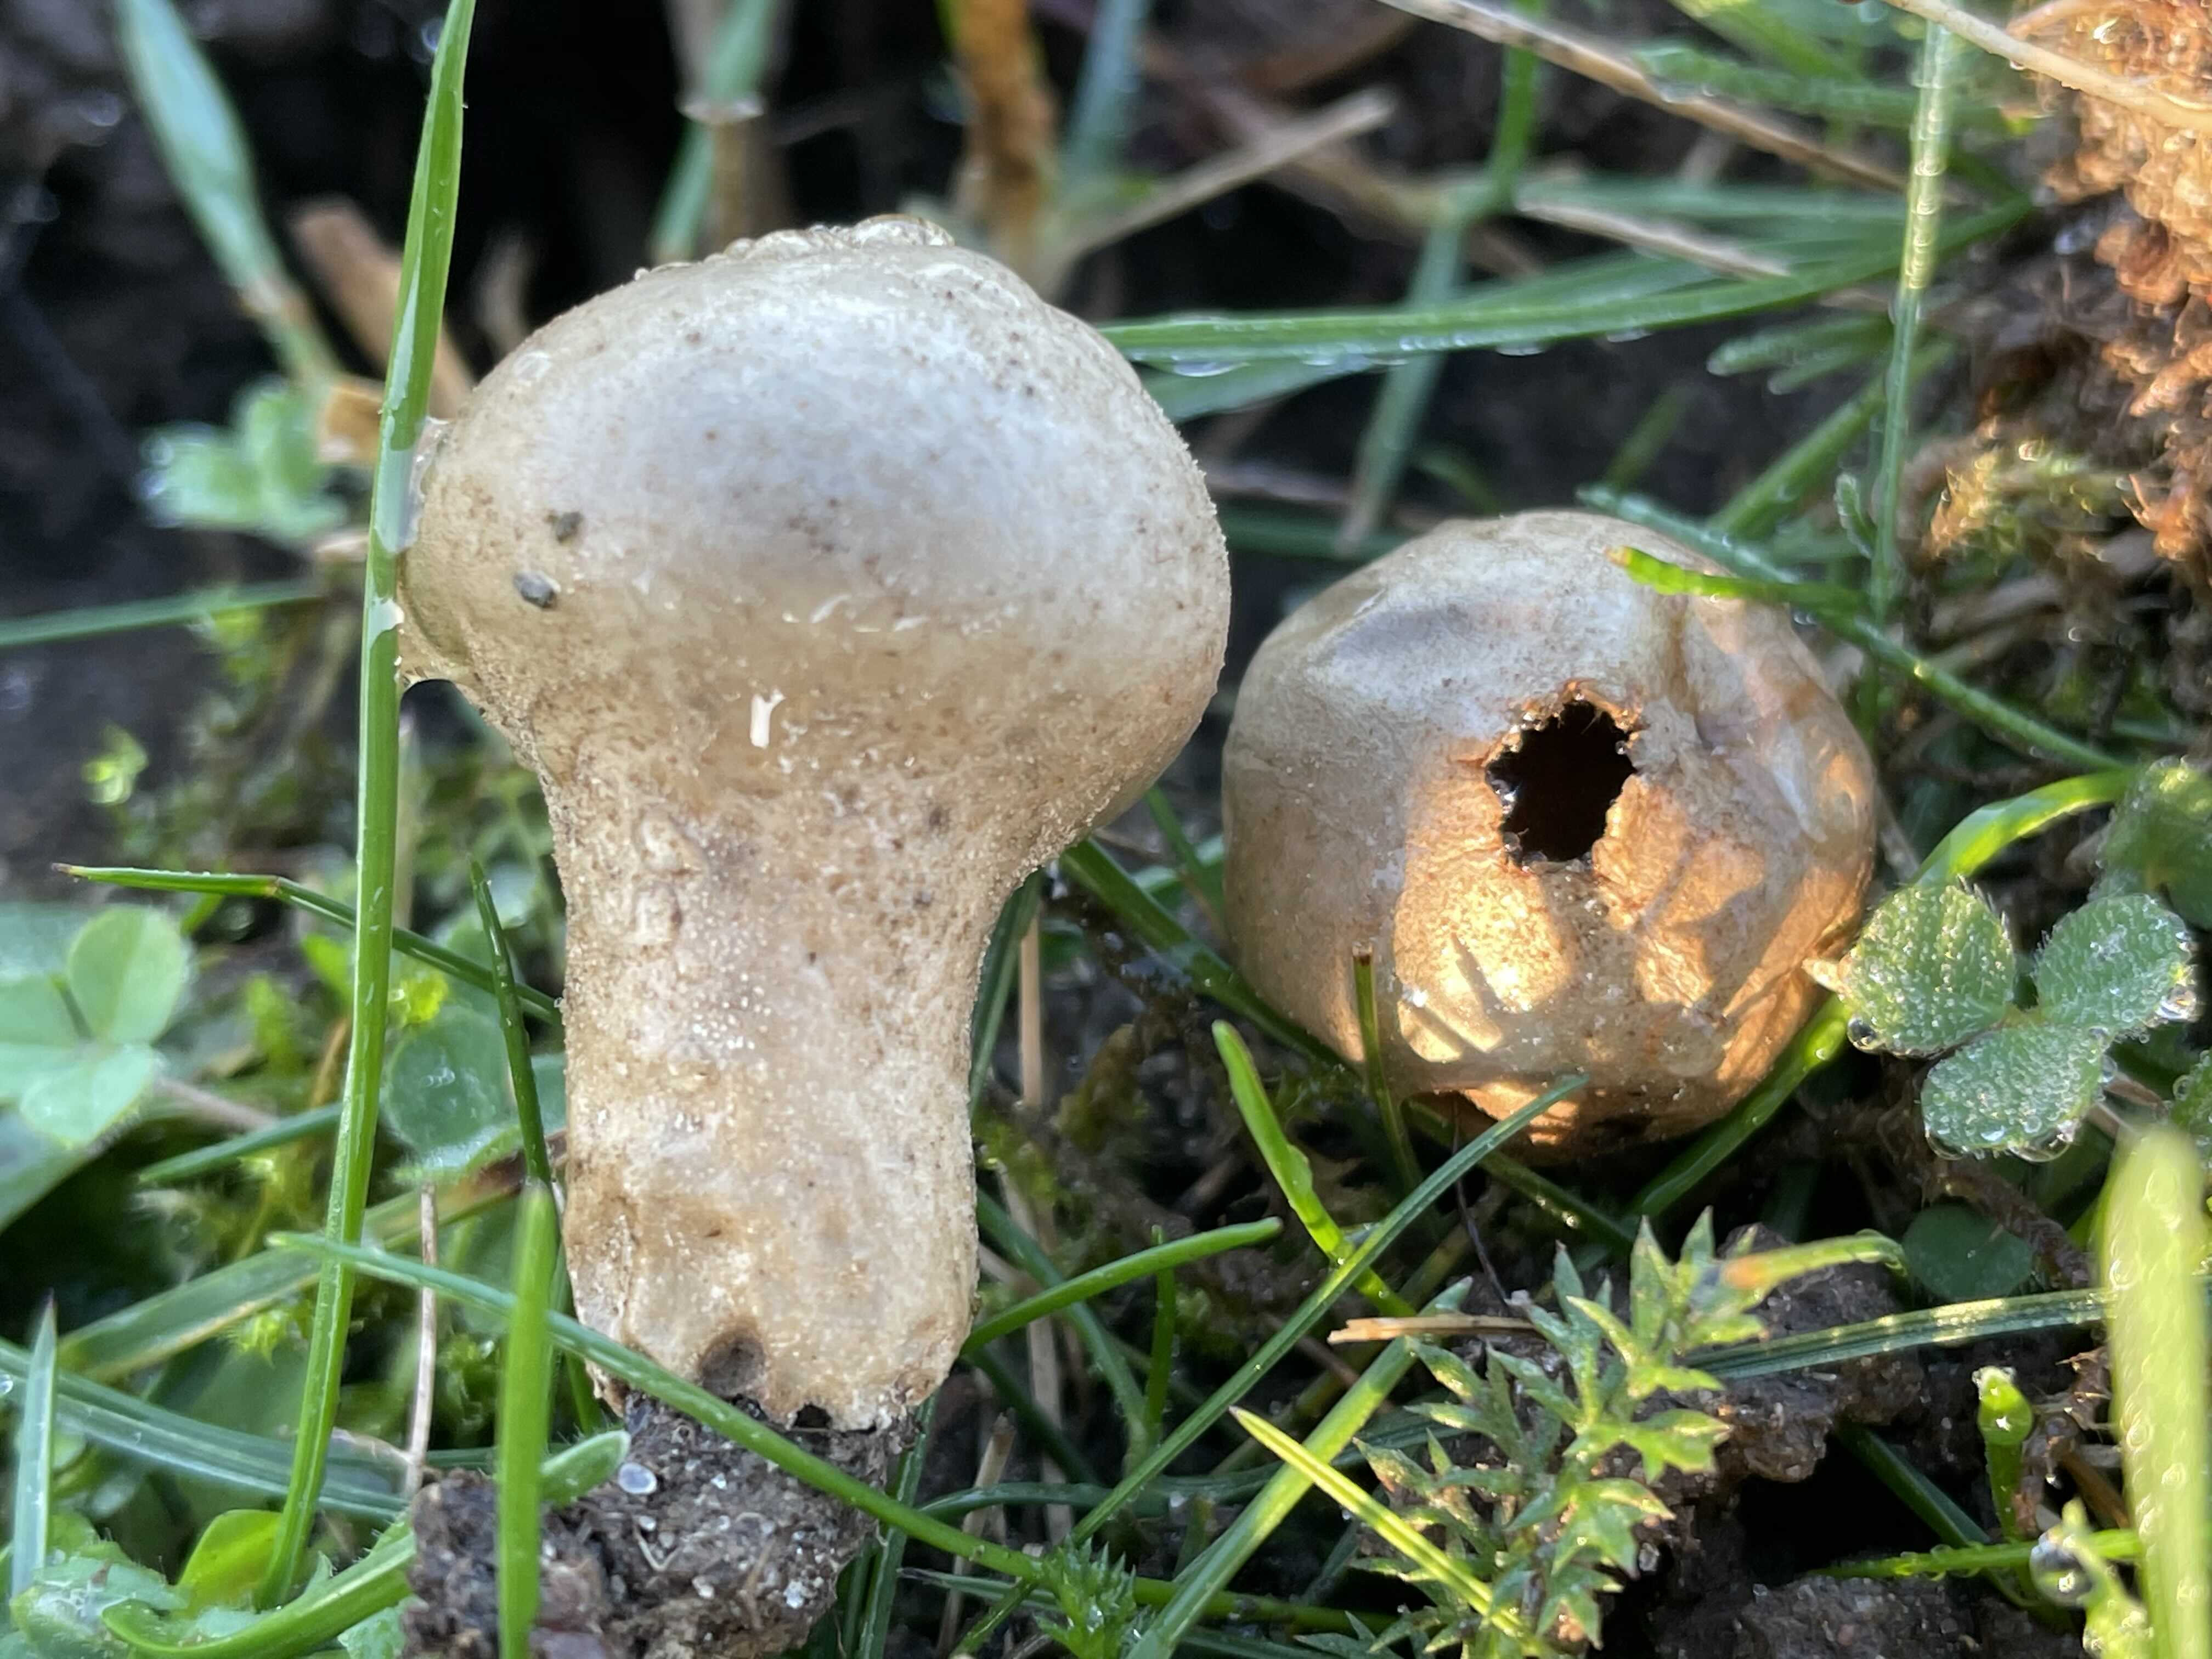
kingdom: Fungi
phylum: Basidiomycota
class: Agaricomycetes
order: Agaricales
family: Lycoperdaceae
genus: Lycoperdon
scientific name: Lycoperdon lividum
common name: mark-støvbold
